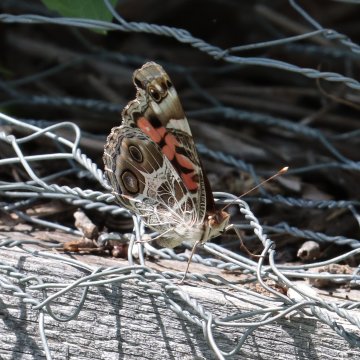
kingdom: Animalia
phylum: Arthropoda
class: Insecta
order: Lepidoptera
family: Nymphalidae
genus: Vanessa
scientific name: Vanessa virginiensis
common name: American Lady
